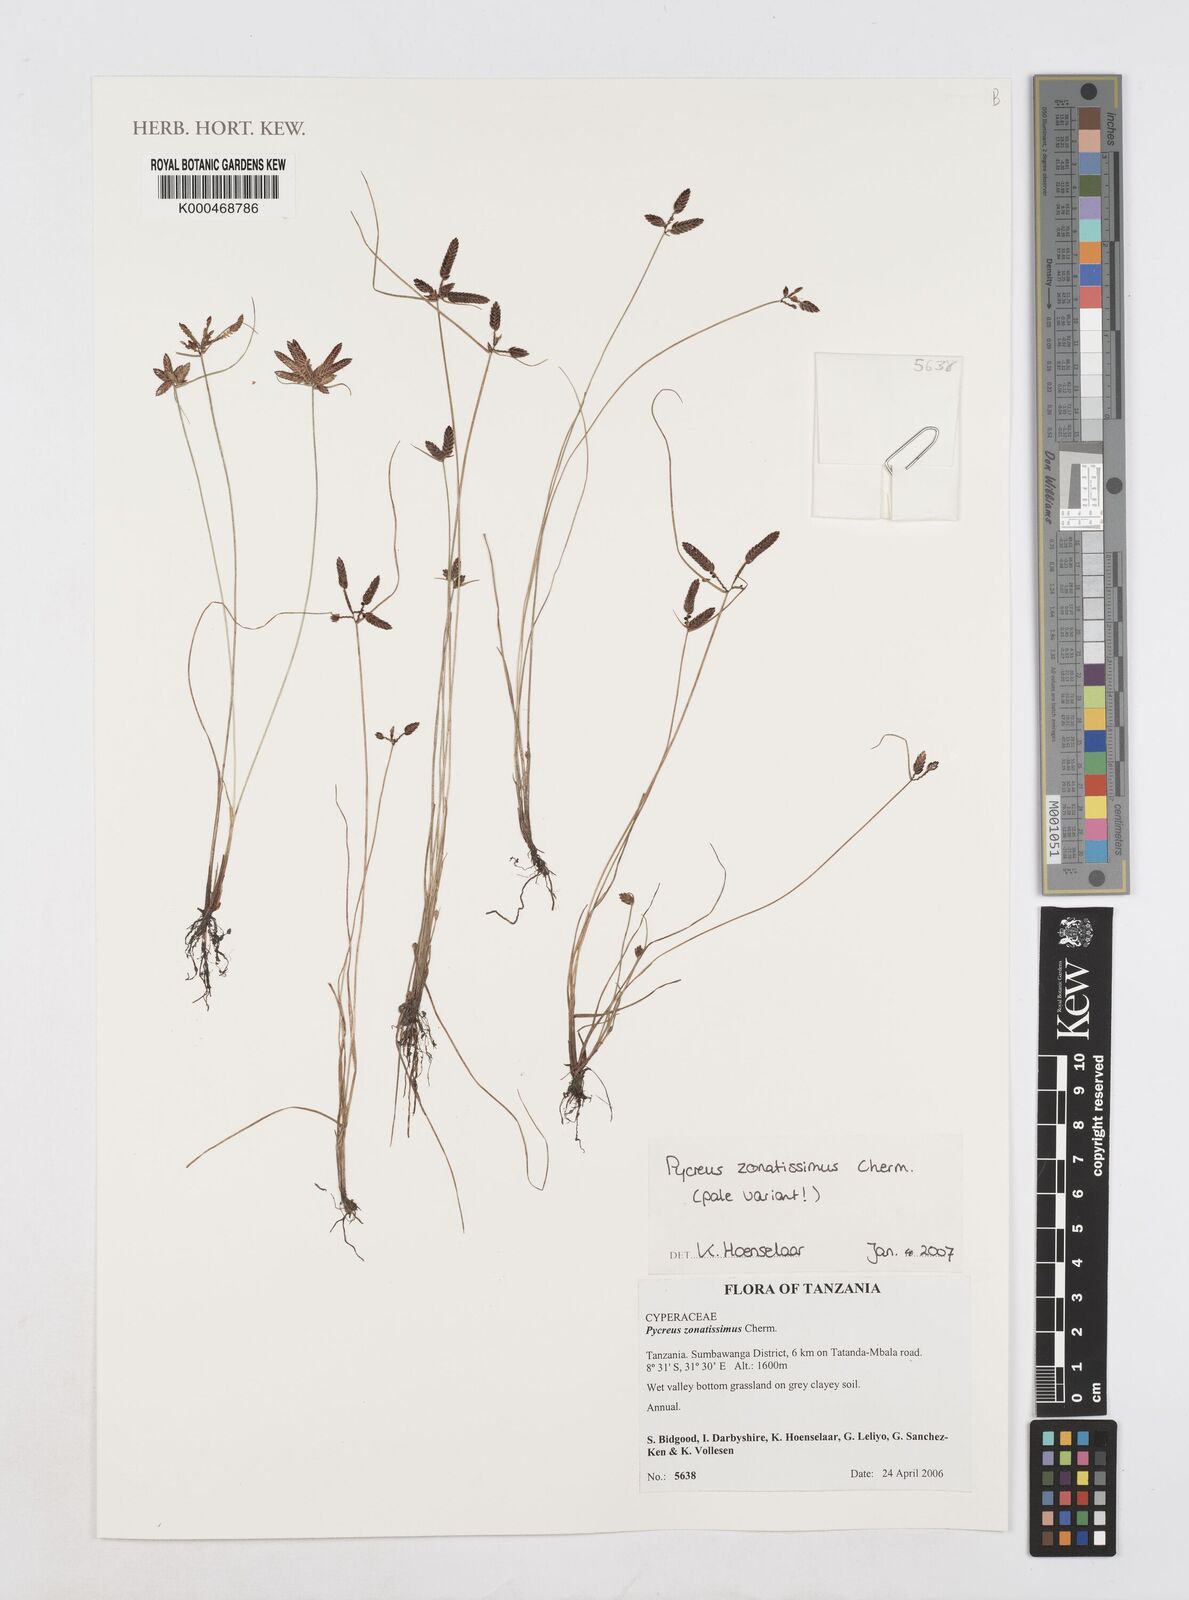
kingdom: Plantae
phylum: Tracheophyta
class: Liliopsida
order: Poales
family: Cyperaceae
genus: Cyperus
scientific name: Cyperus zonatissimus
